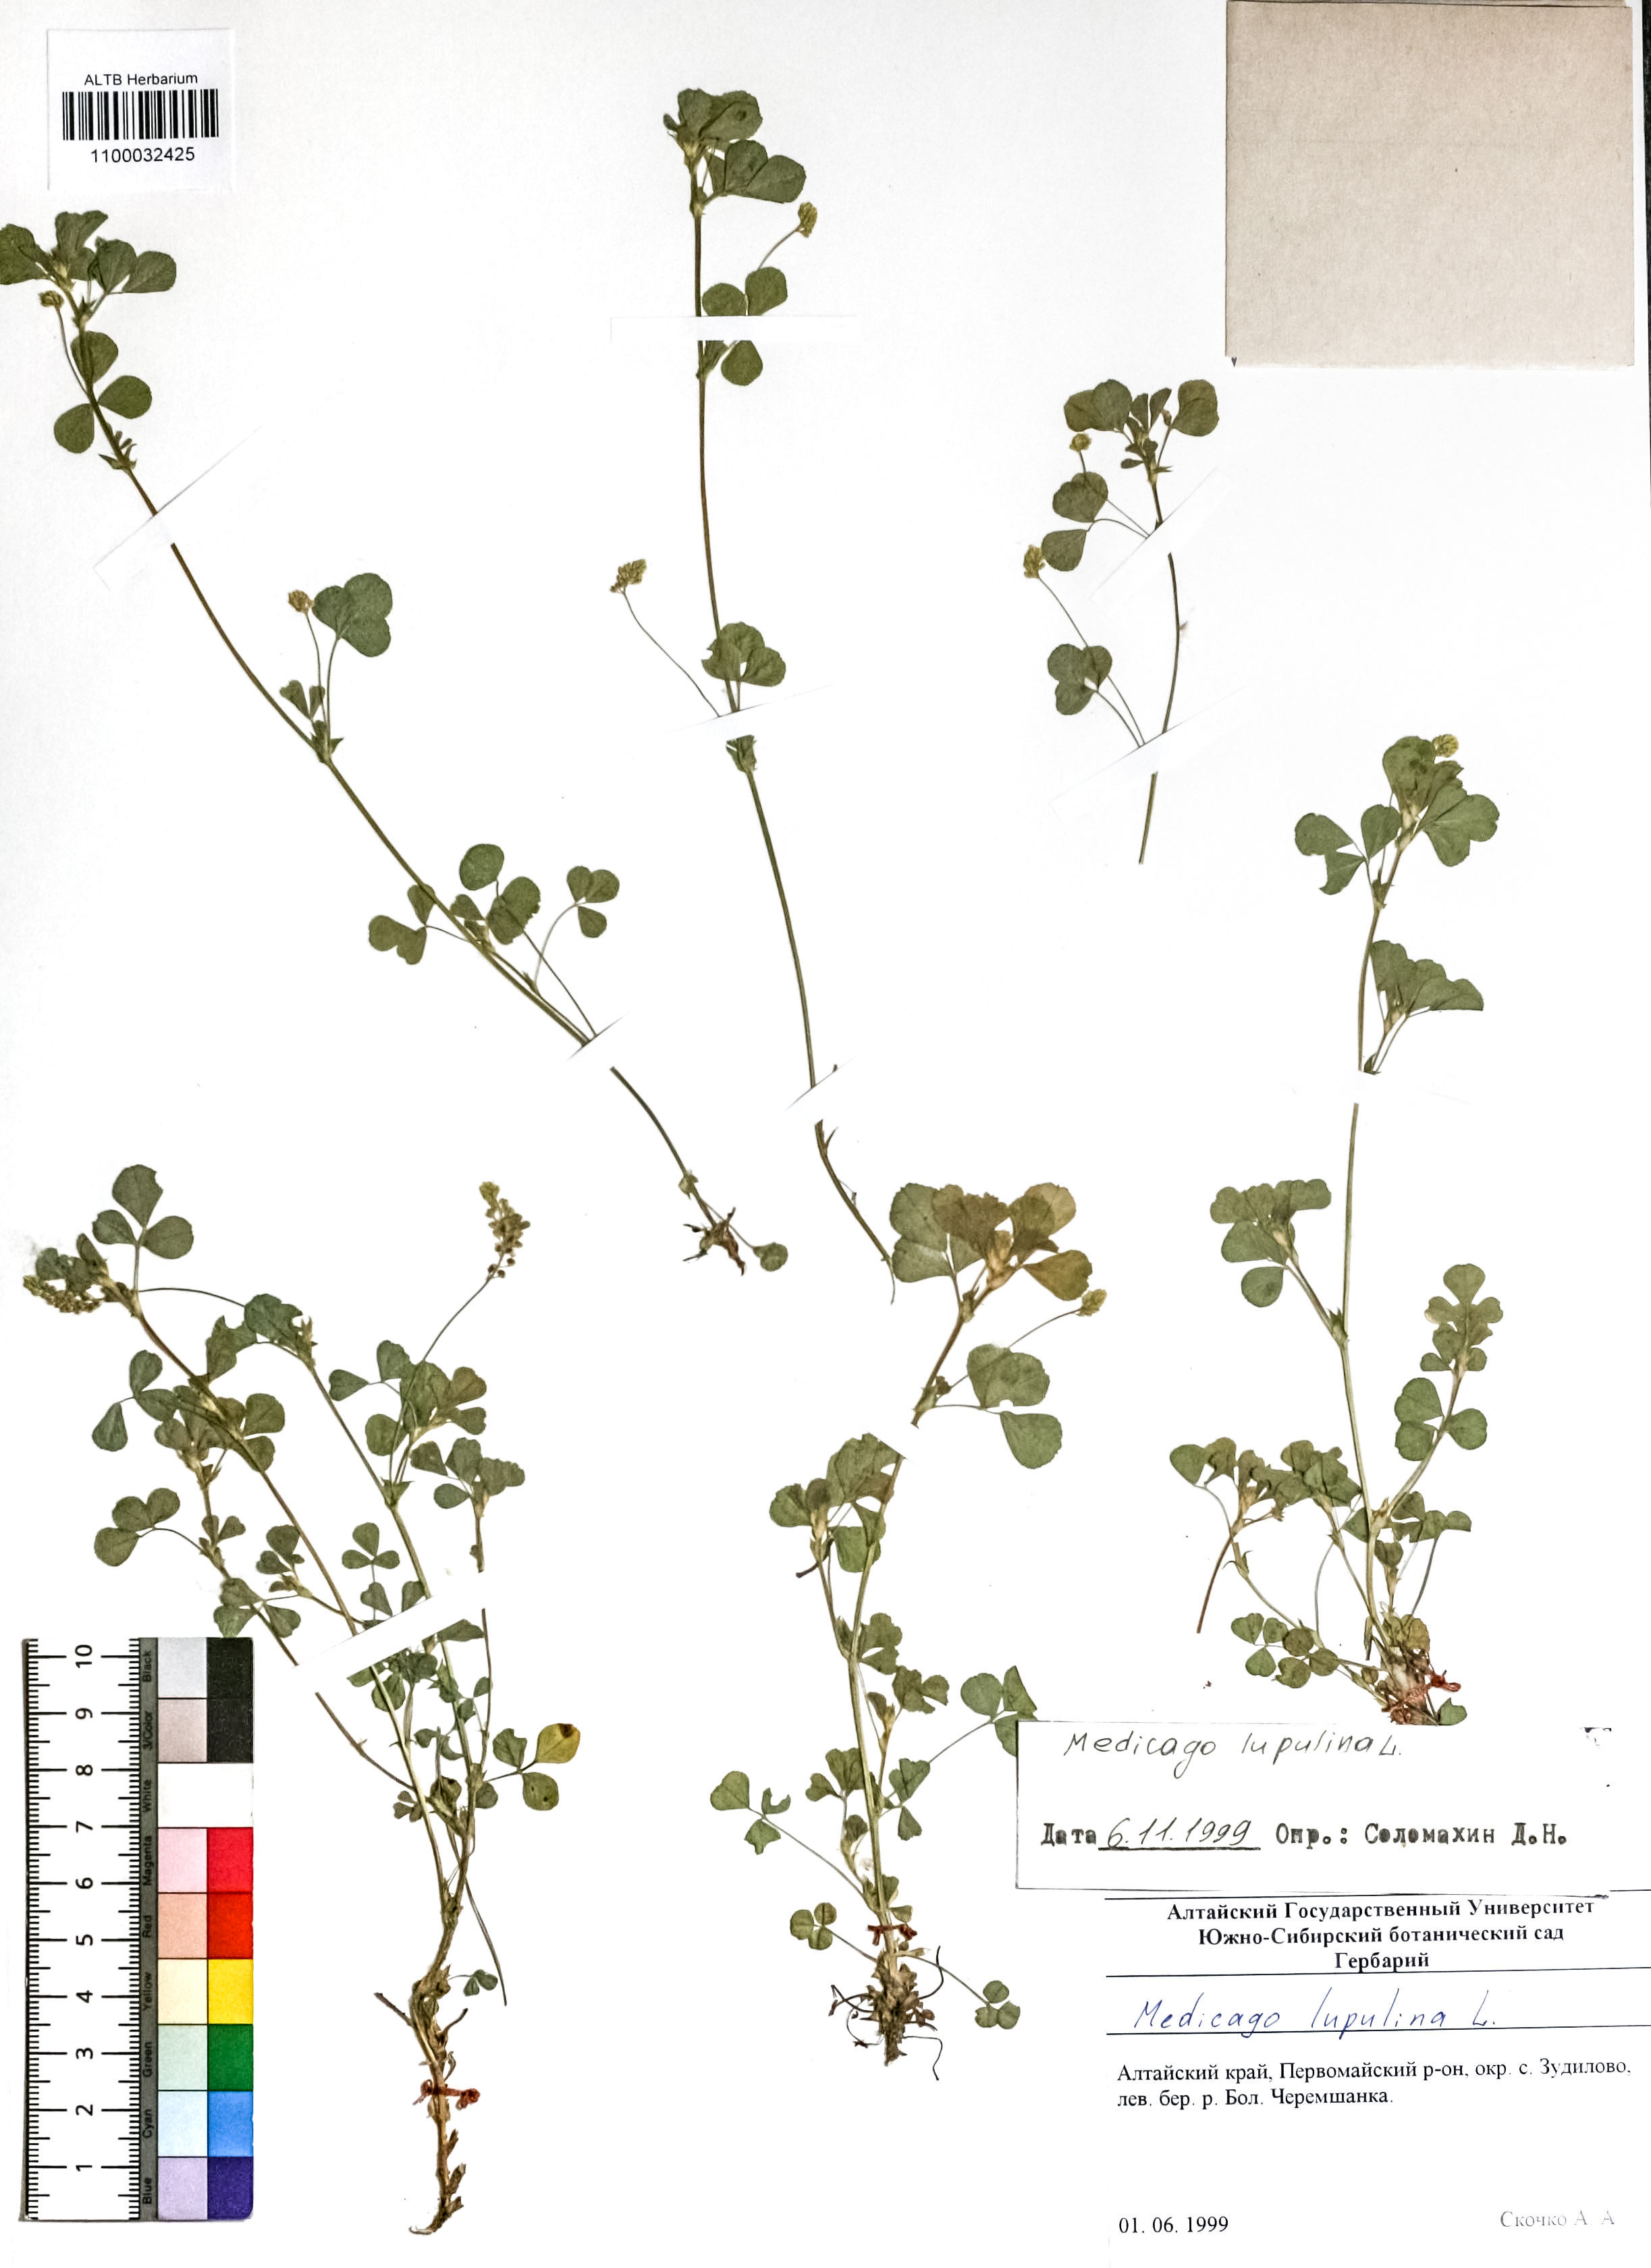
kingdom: Plantae
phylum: Tracheophyta
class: Magnoliopsida
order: Fabales
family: Fabaceae
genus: Medicago
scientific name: Medicago lupulina
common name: Black medick
